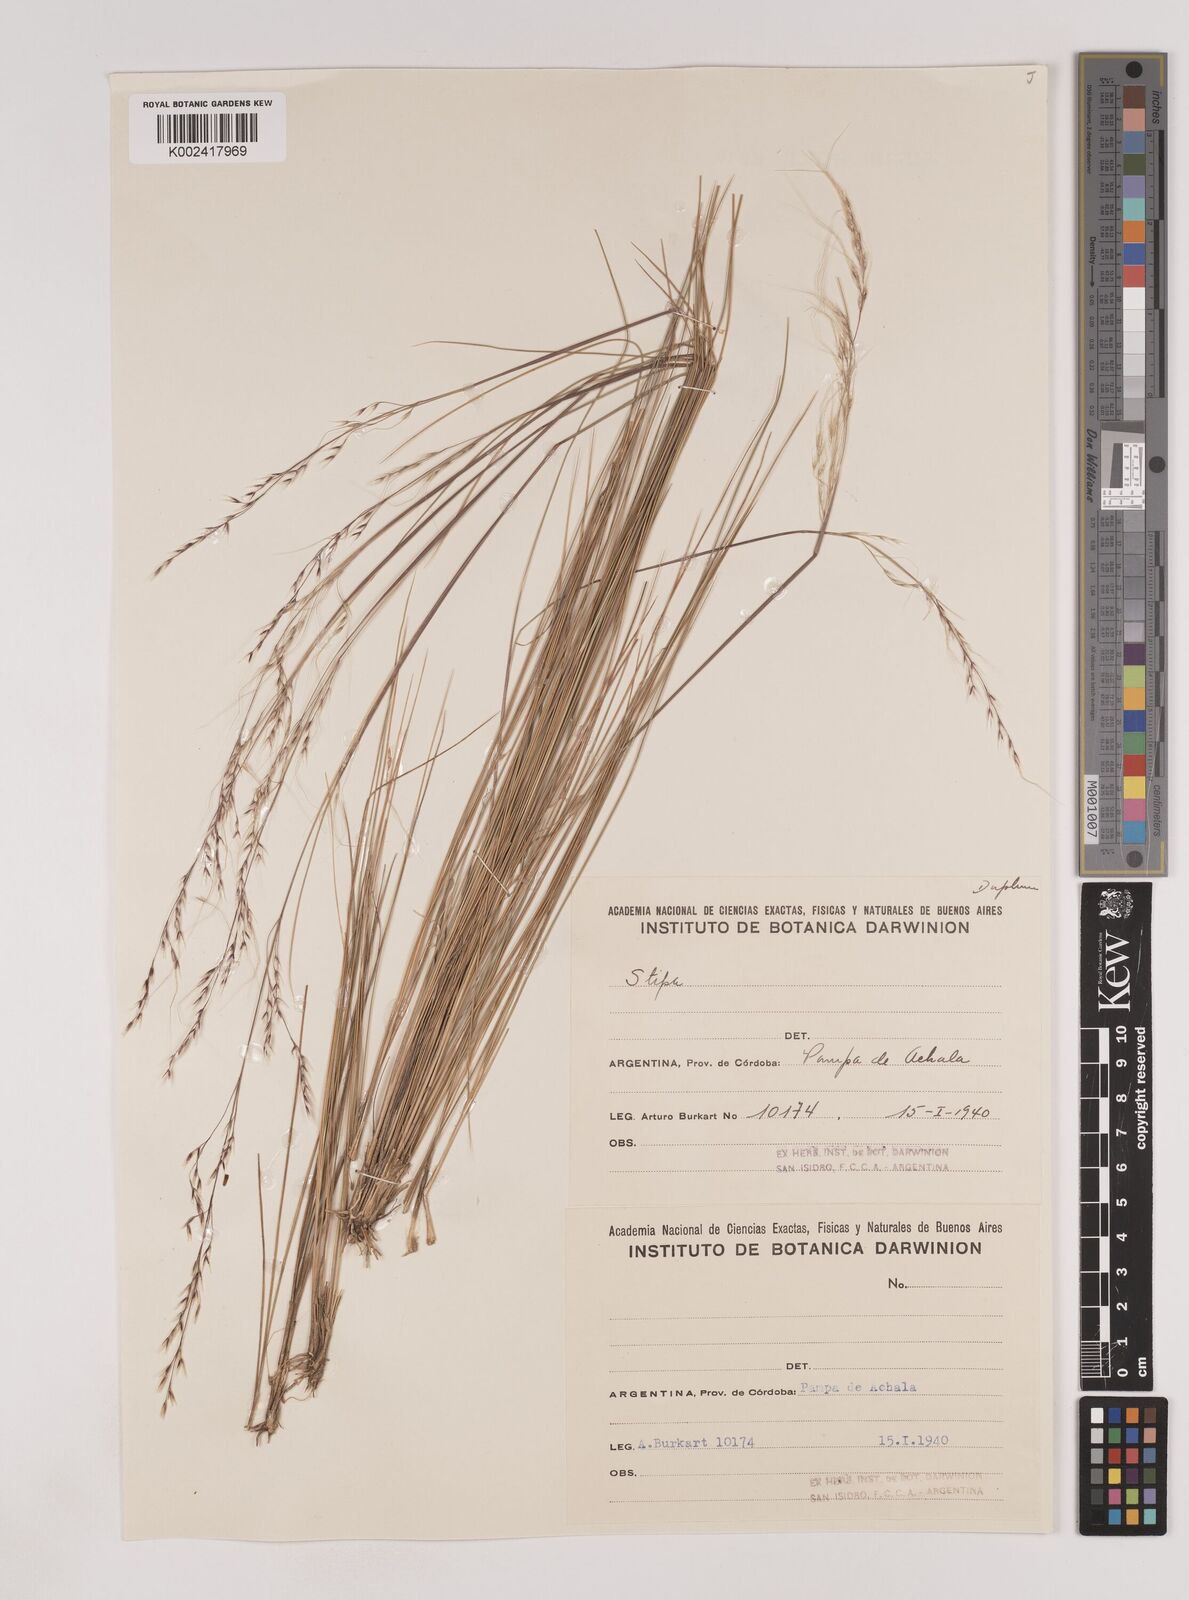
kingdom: Plantae
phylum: Tracheophyta
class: Liliopsida
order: Poales
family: Poaceae
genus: Nassella
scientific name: Nassella stuckertii
